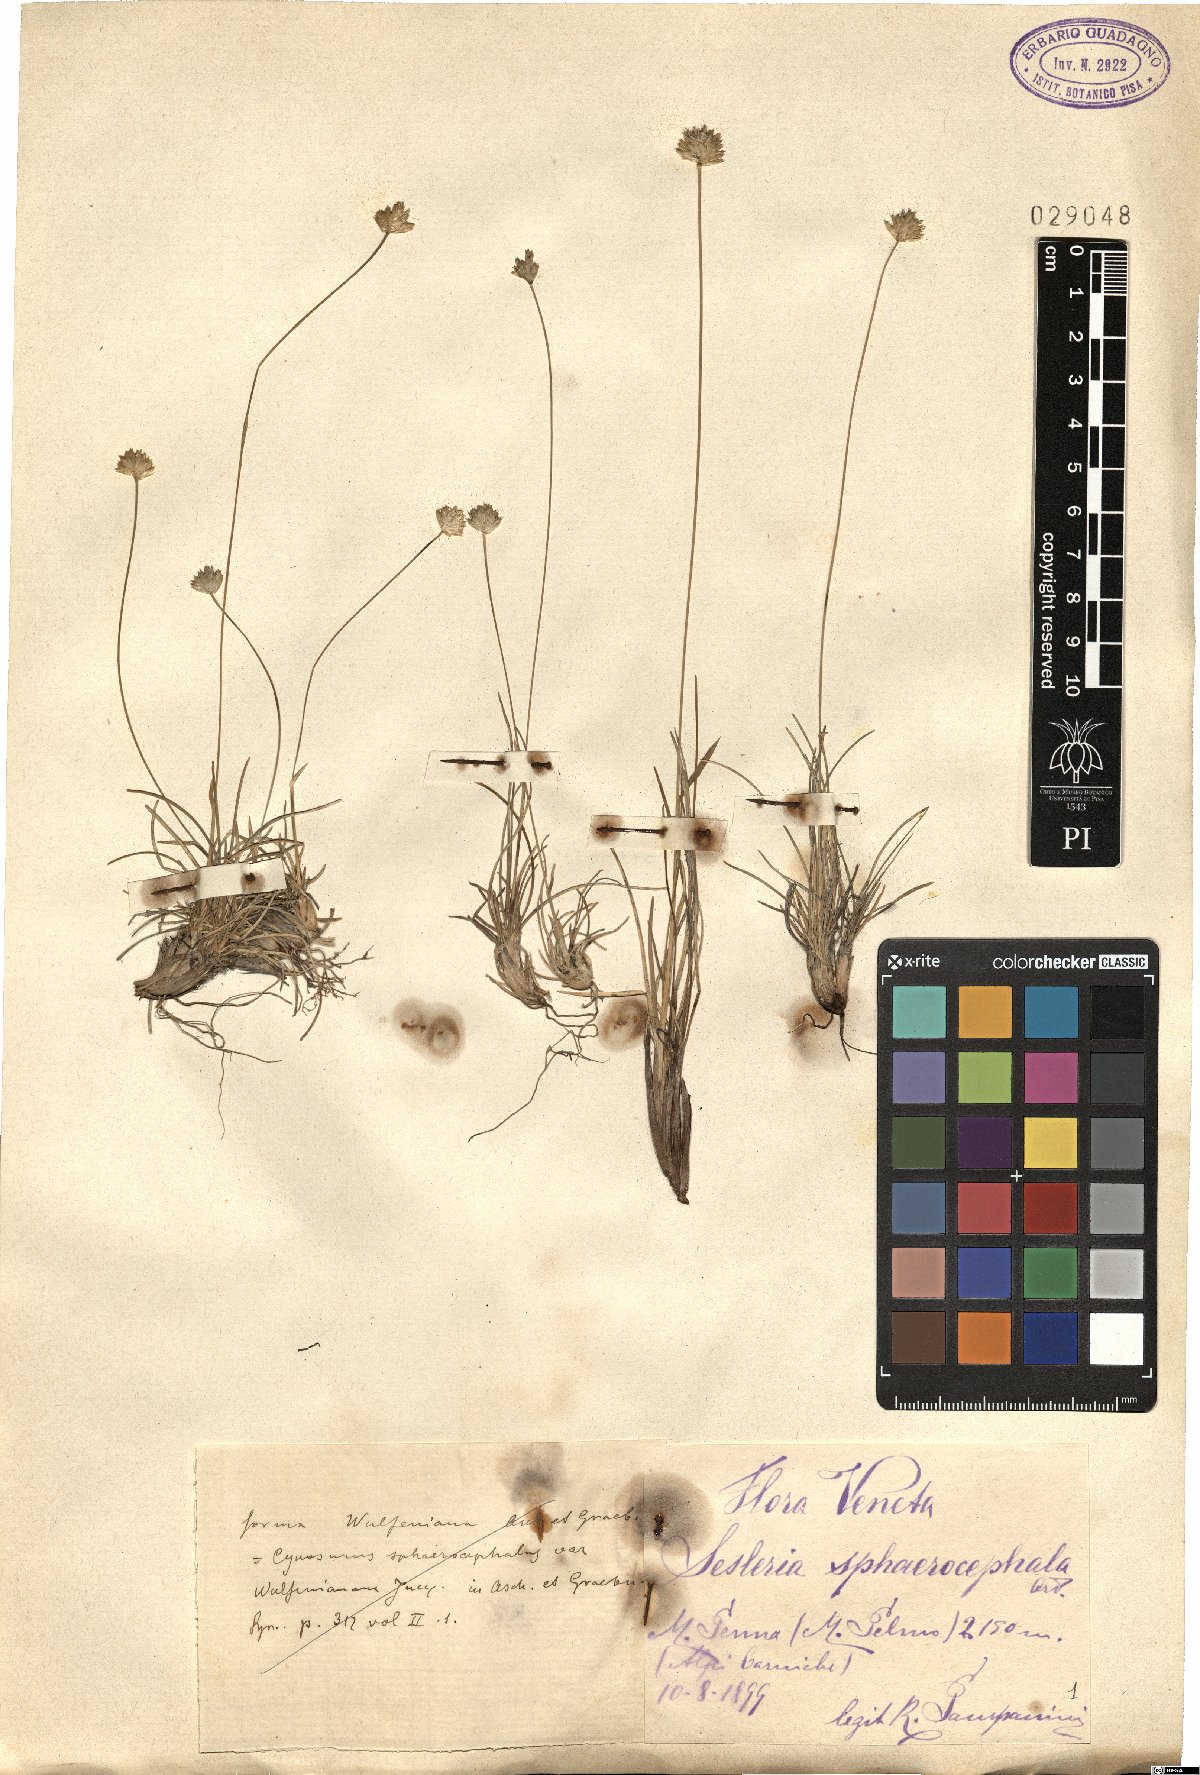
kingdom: Plantae
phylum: Tracheophyta
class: Liliopsida
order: Poales
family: Poaceae
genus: Sesleriella
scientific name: Sesleriella sphaerocephala
